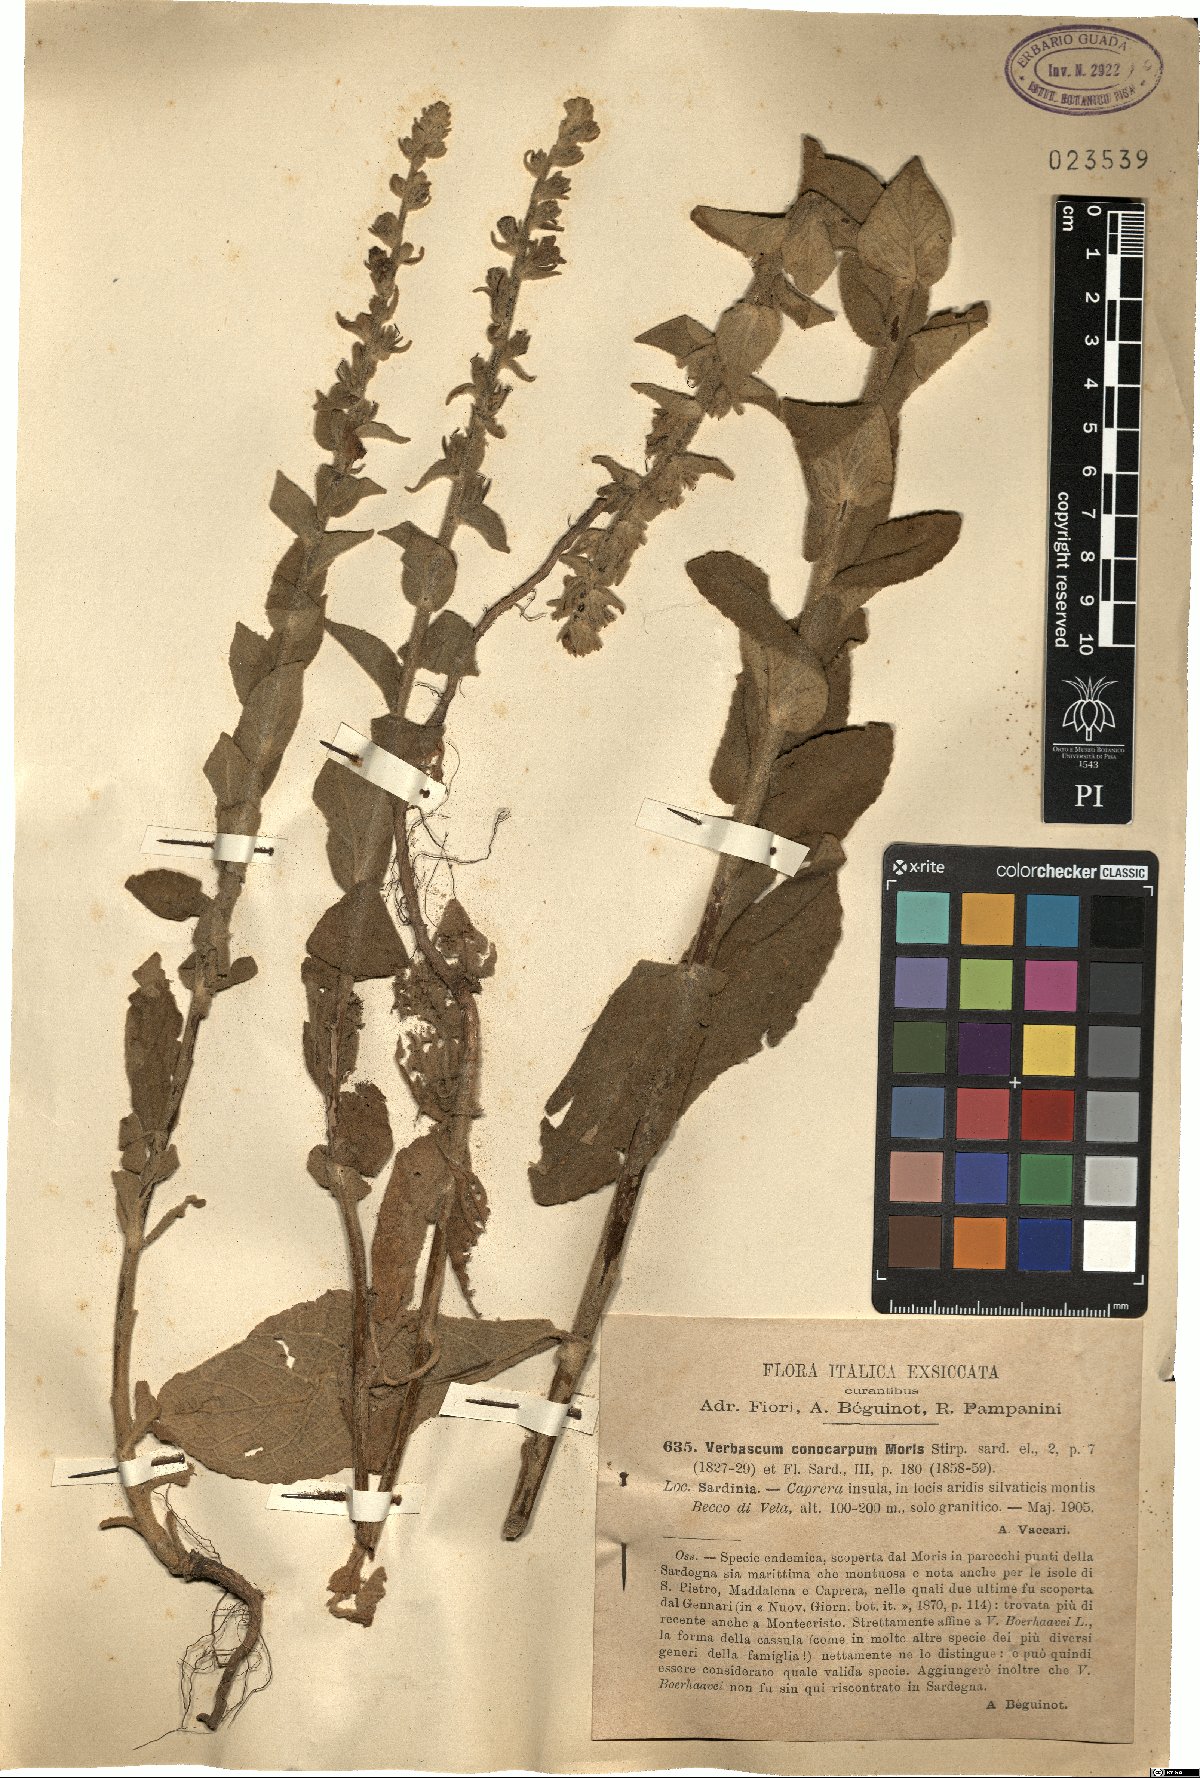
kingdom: Plantae
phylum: Tracheophyta
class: Magnoliopsida
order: Lamiales
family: Scrophulariaceae
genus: Verbascum
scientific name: Verbascum conocarpum
